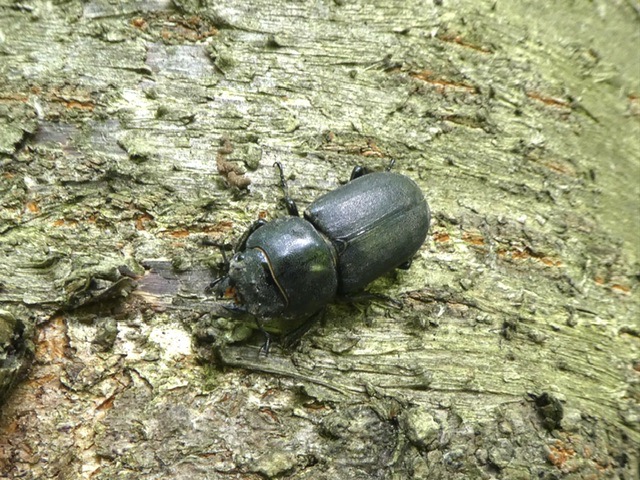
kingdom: Animalia
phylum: Arthropoda
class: Insecta
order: Coleoptera
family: Lucanidae
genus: Dorcus
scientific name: Dorcus parallelipipedus
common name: Bøghjort
